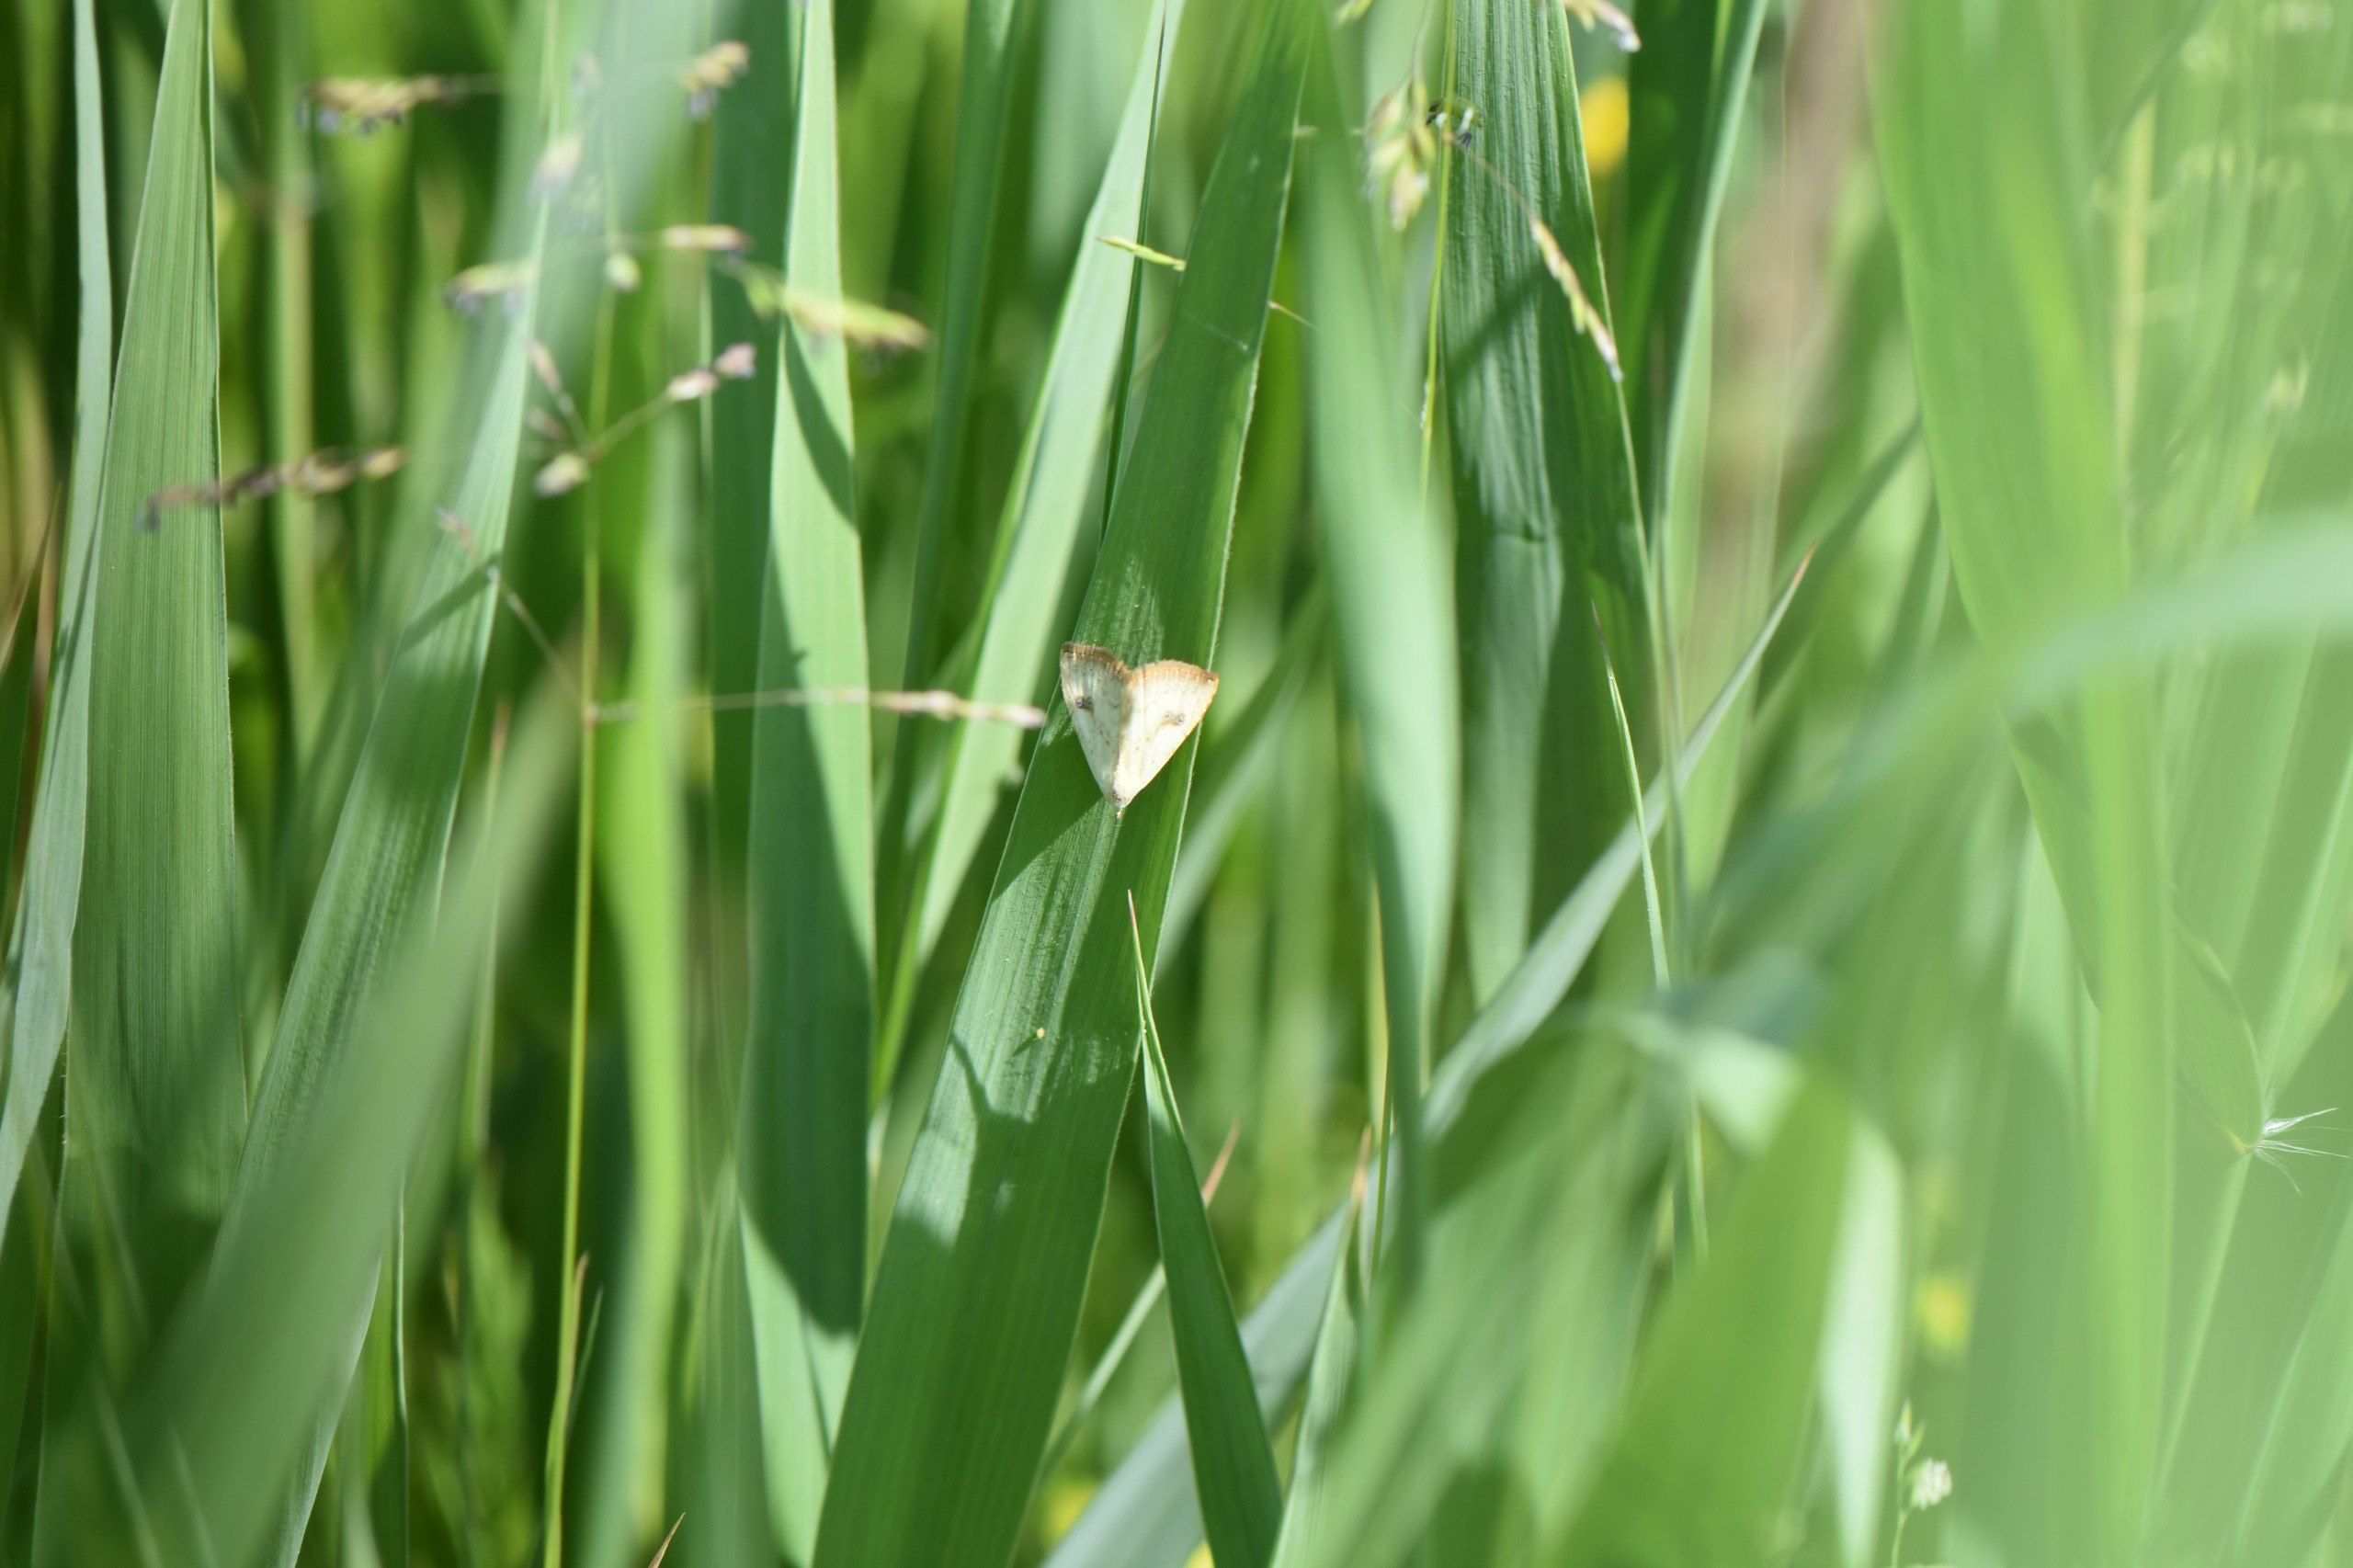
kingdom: Animalia
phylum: Arthropoda
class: Insecta
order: Lepidoptera
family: Erebidae
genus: Rivula
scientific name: Rivula sericealis
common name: Lille å-ugle
